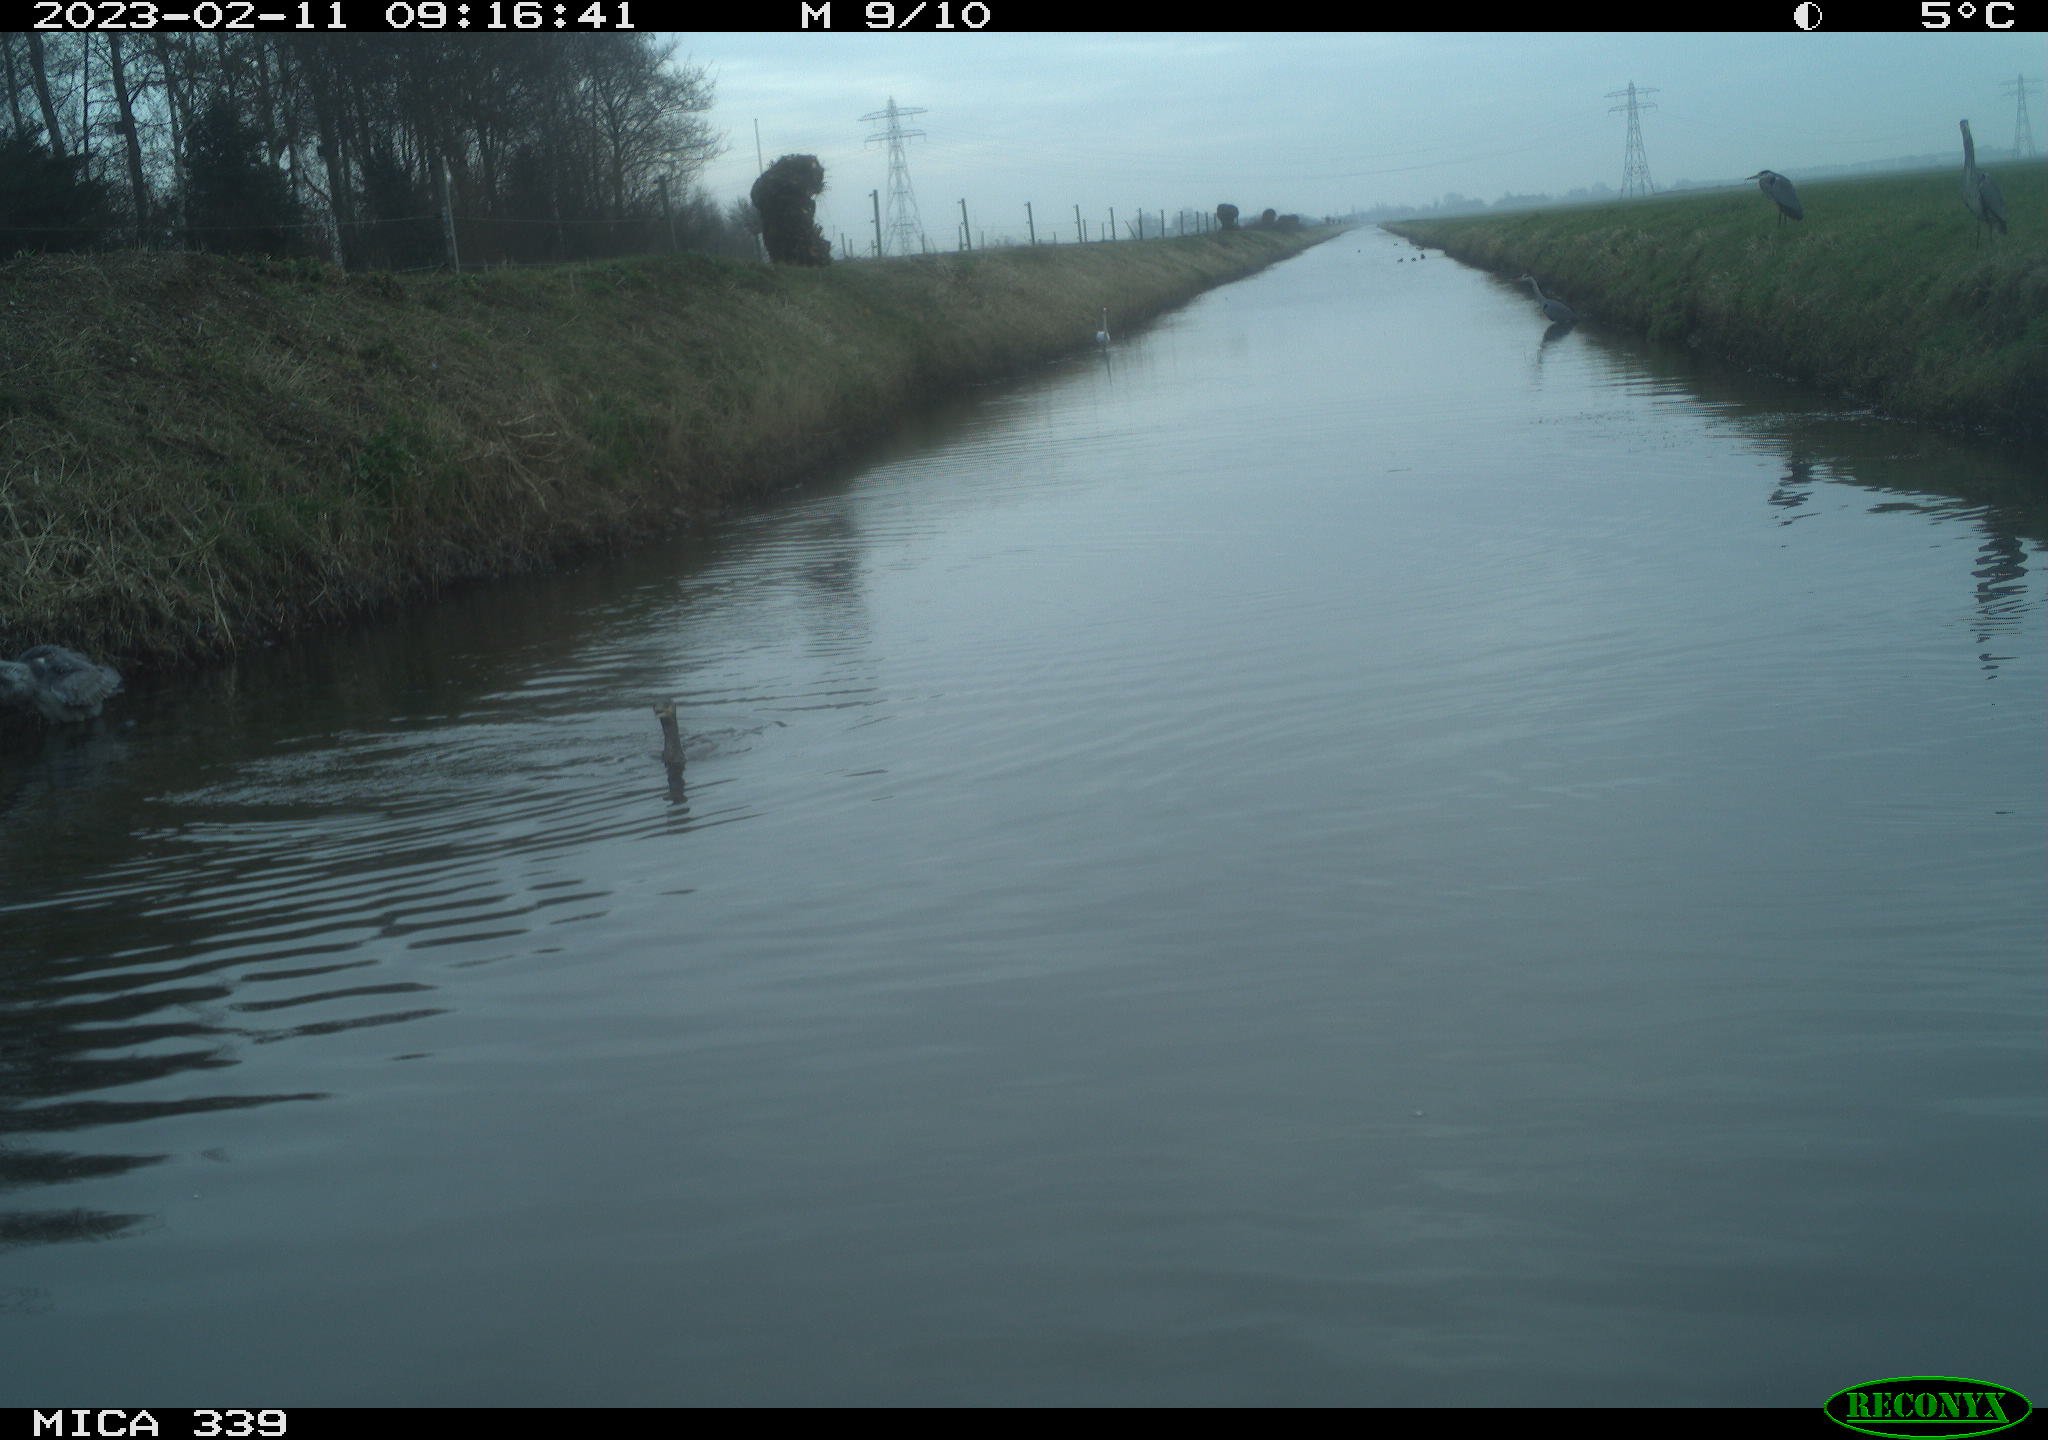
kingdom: Animalia
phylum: Chordata
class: Aves
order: Pelecaniformes
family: Ardeidae
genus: Ardea
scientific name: Ardea cinerea
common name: Grey heron
